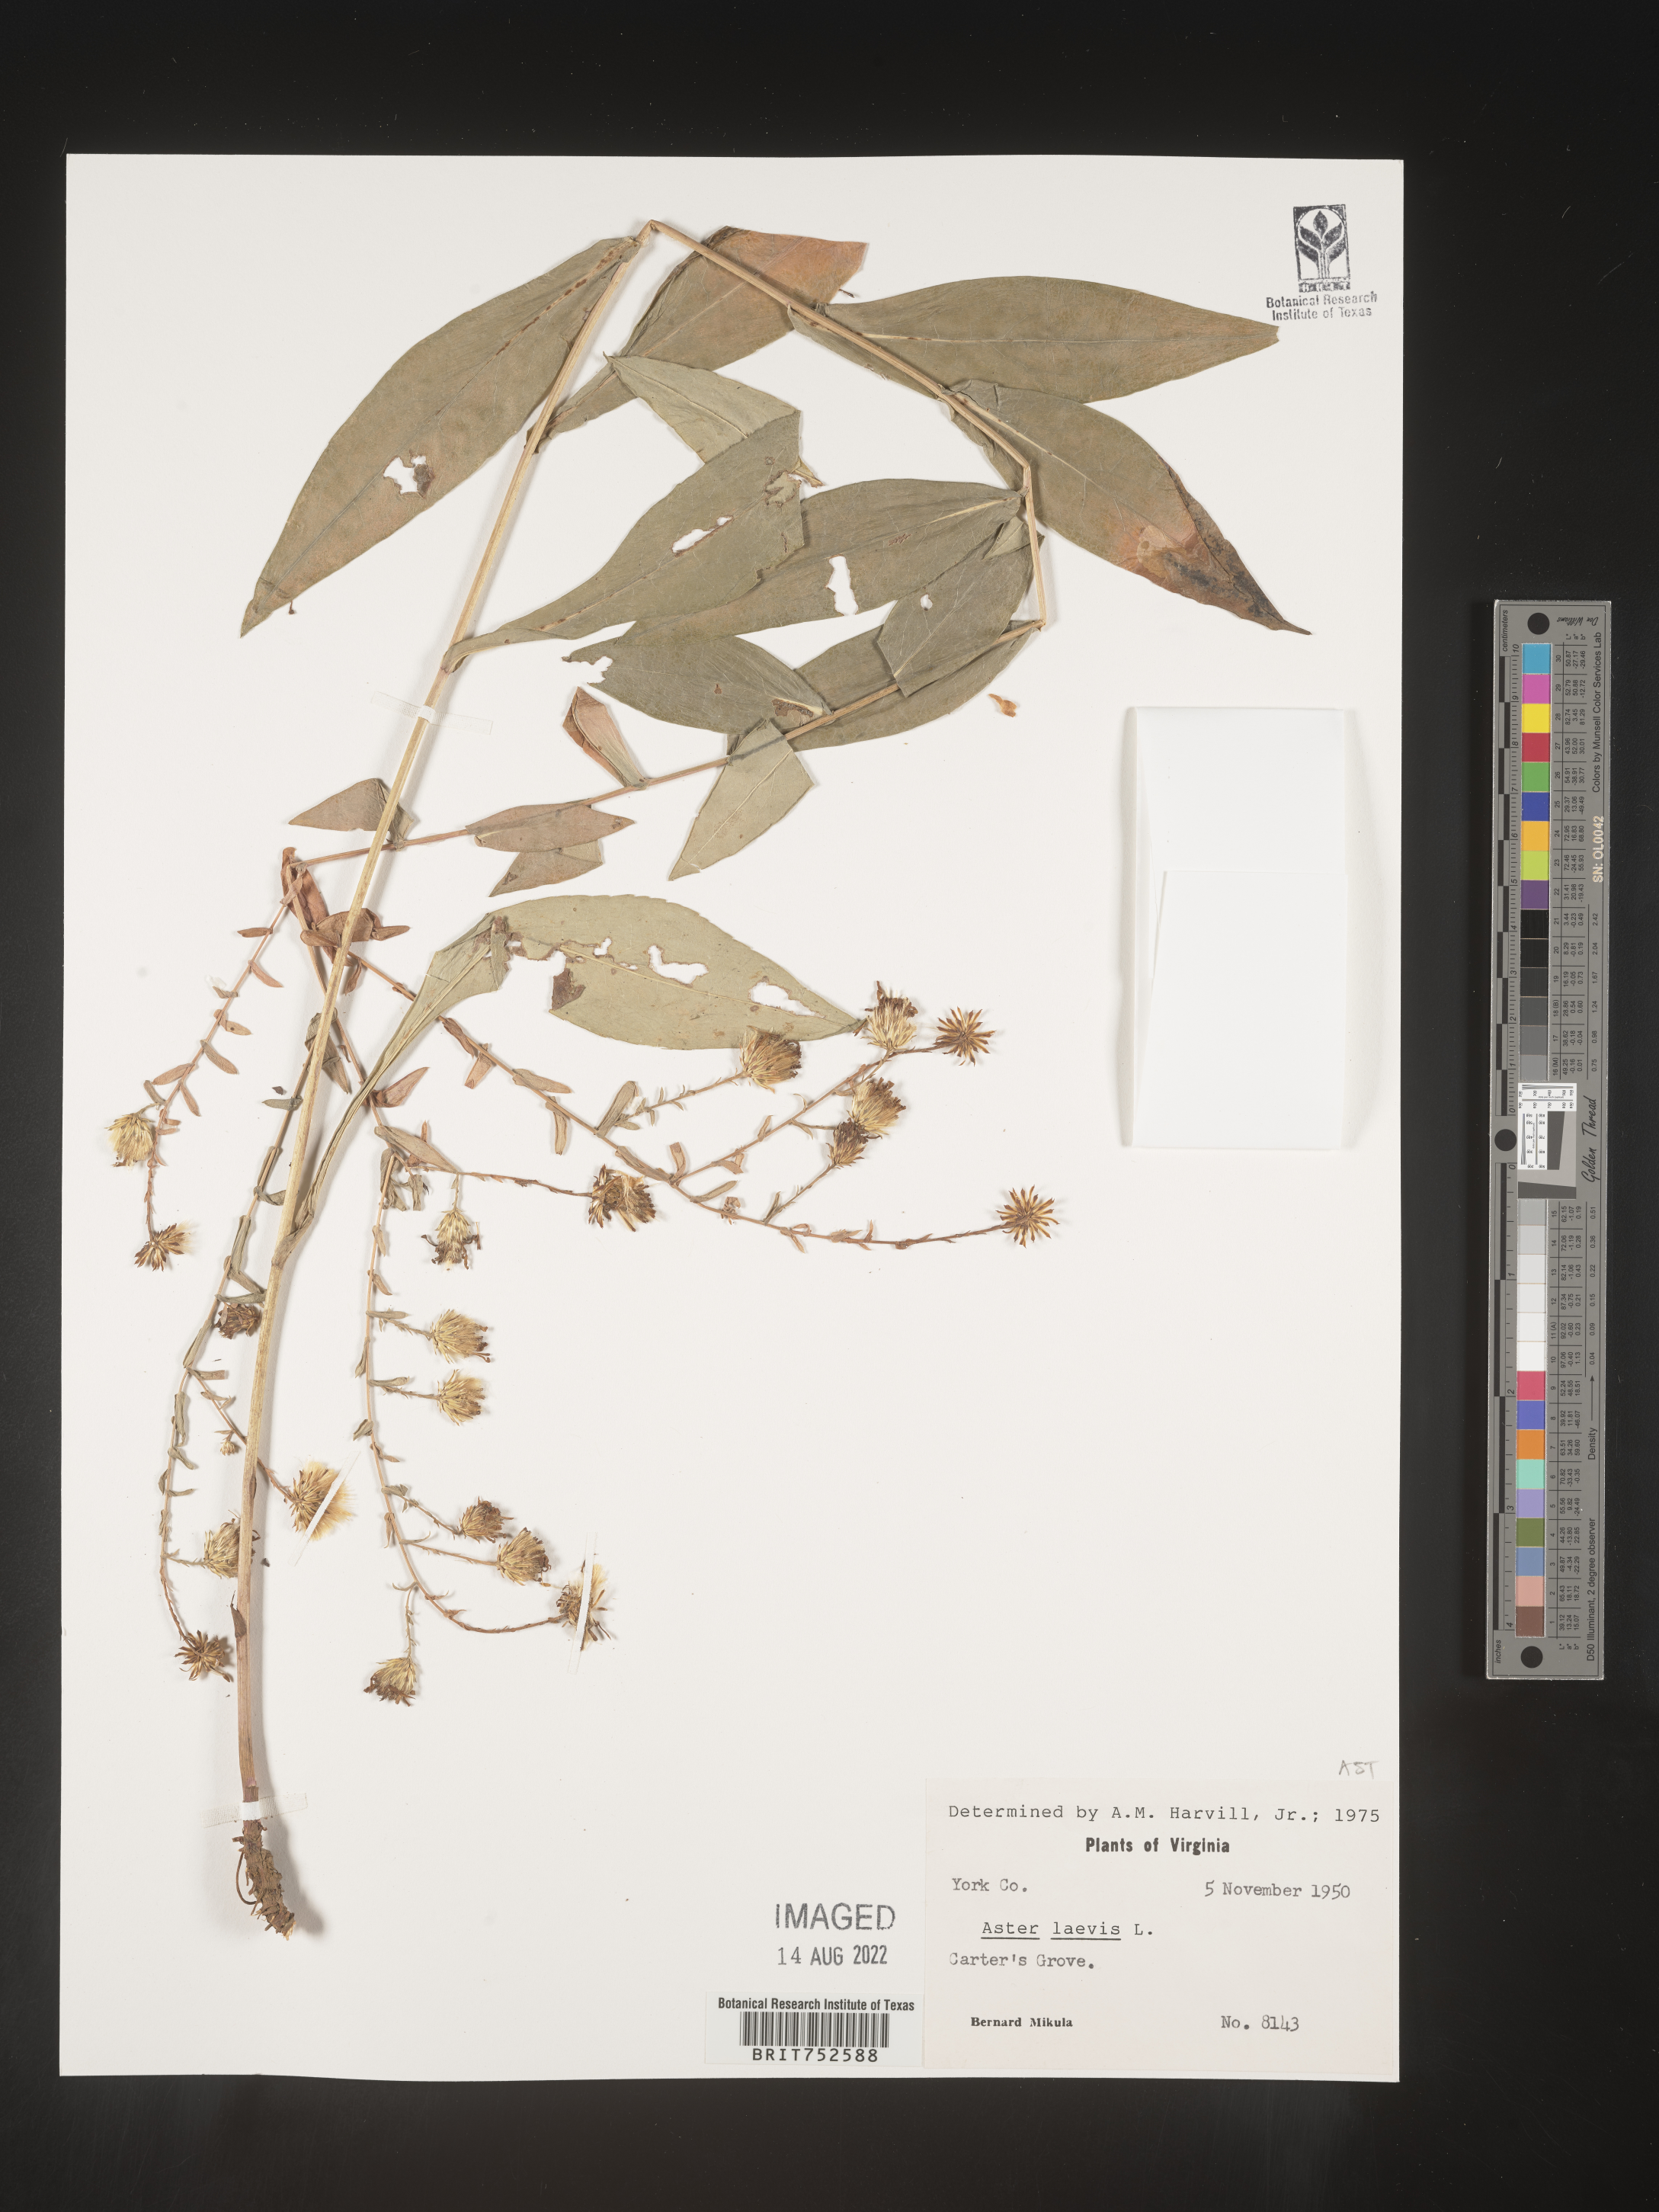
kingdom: Plantae
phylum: Tracheophyta
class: Magnoliopsida
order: Asterales
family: Asteraceae
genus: Symphyotrichum
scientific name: Symphyotrichum laeve
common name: Glaucous aster
